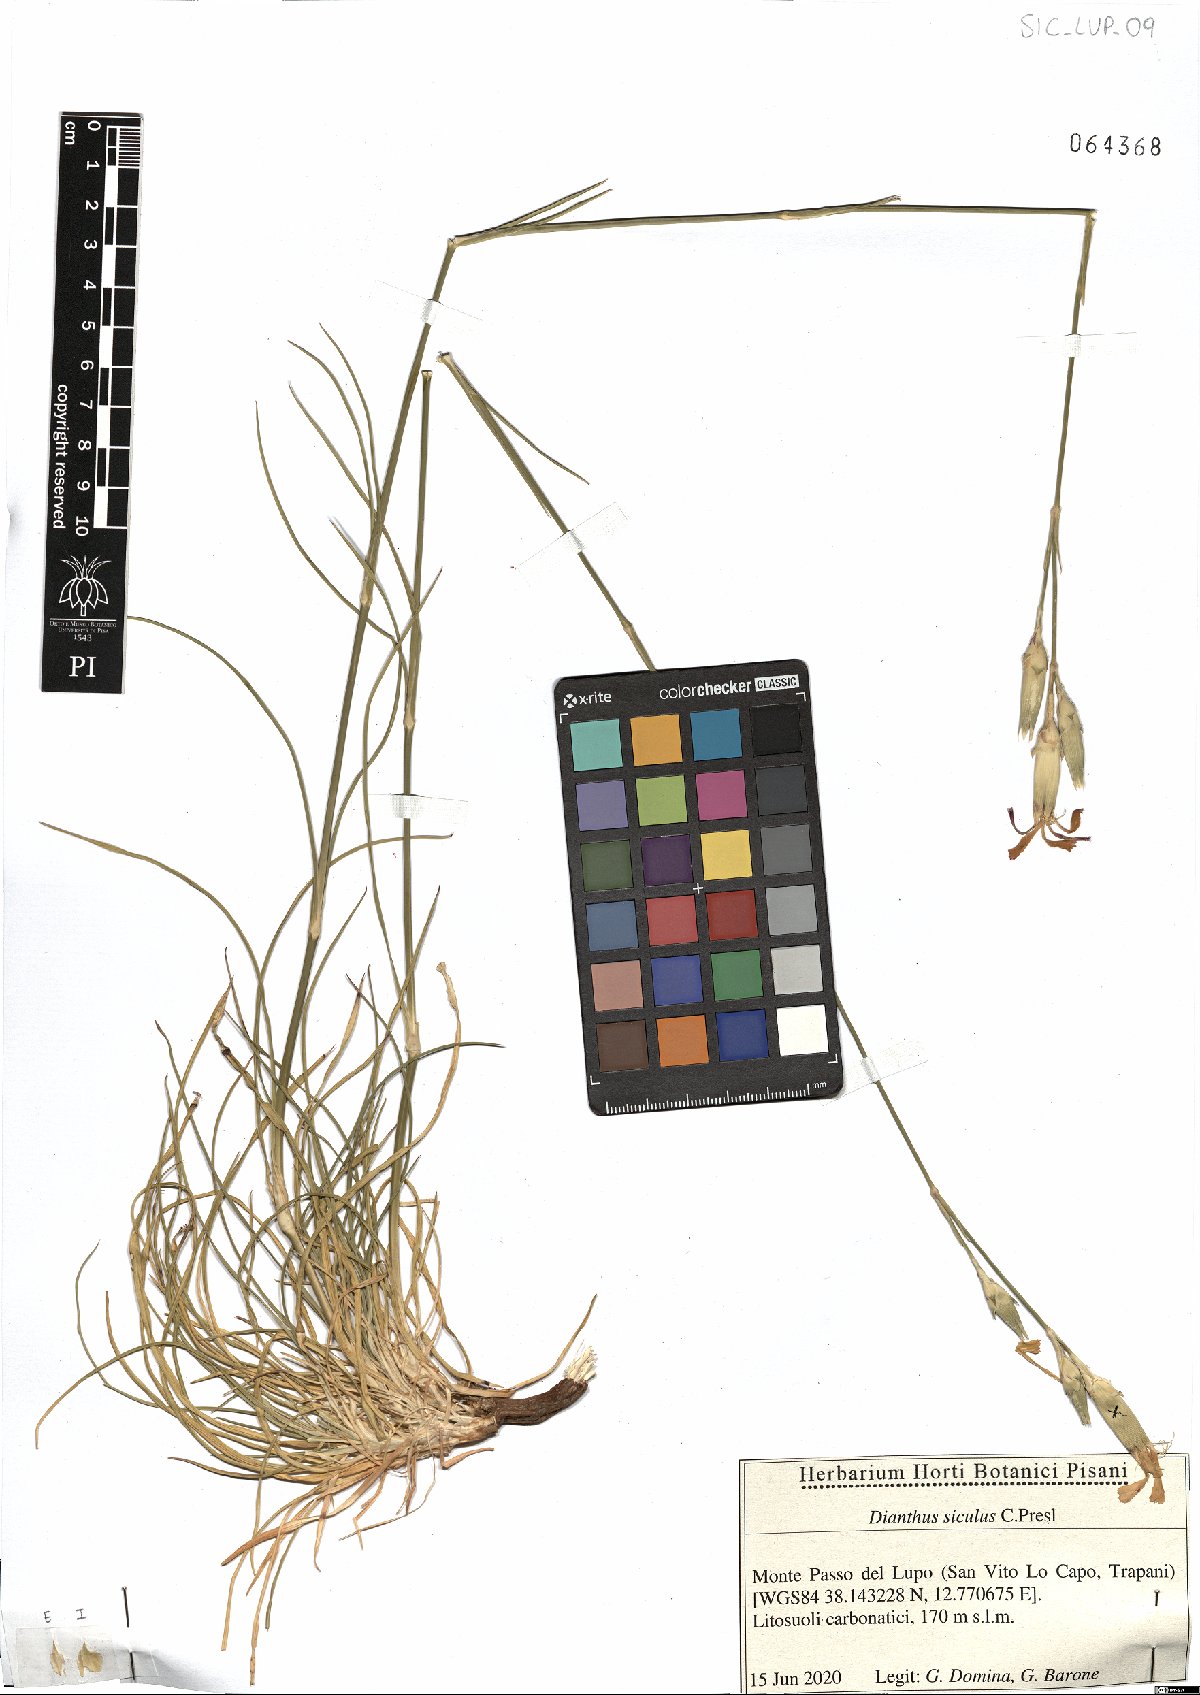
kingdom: Plantae
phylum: Tracheophyta
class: Magnoliopsida
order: Caryophyllales
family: Caryophyllaceae
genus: Dianthus
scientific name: Dianthus siculus
